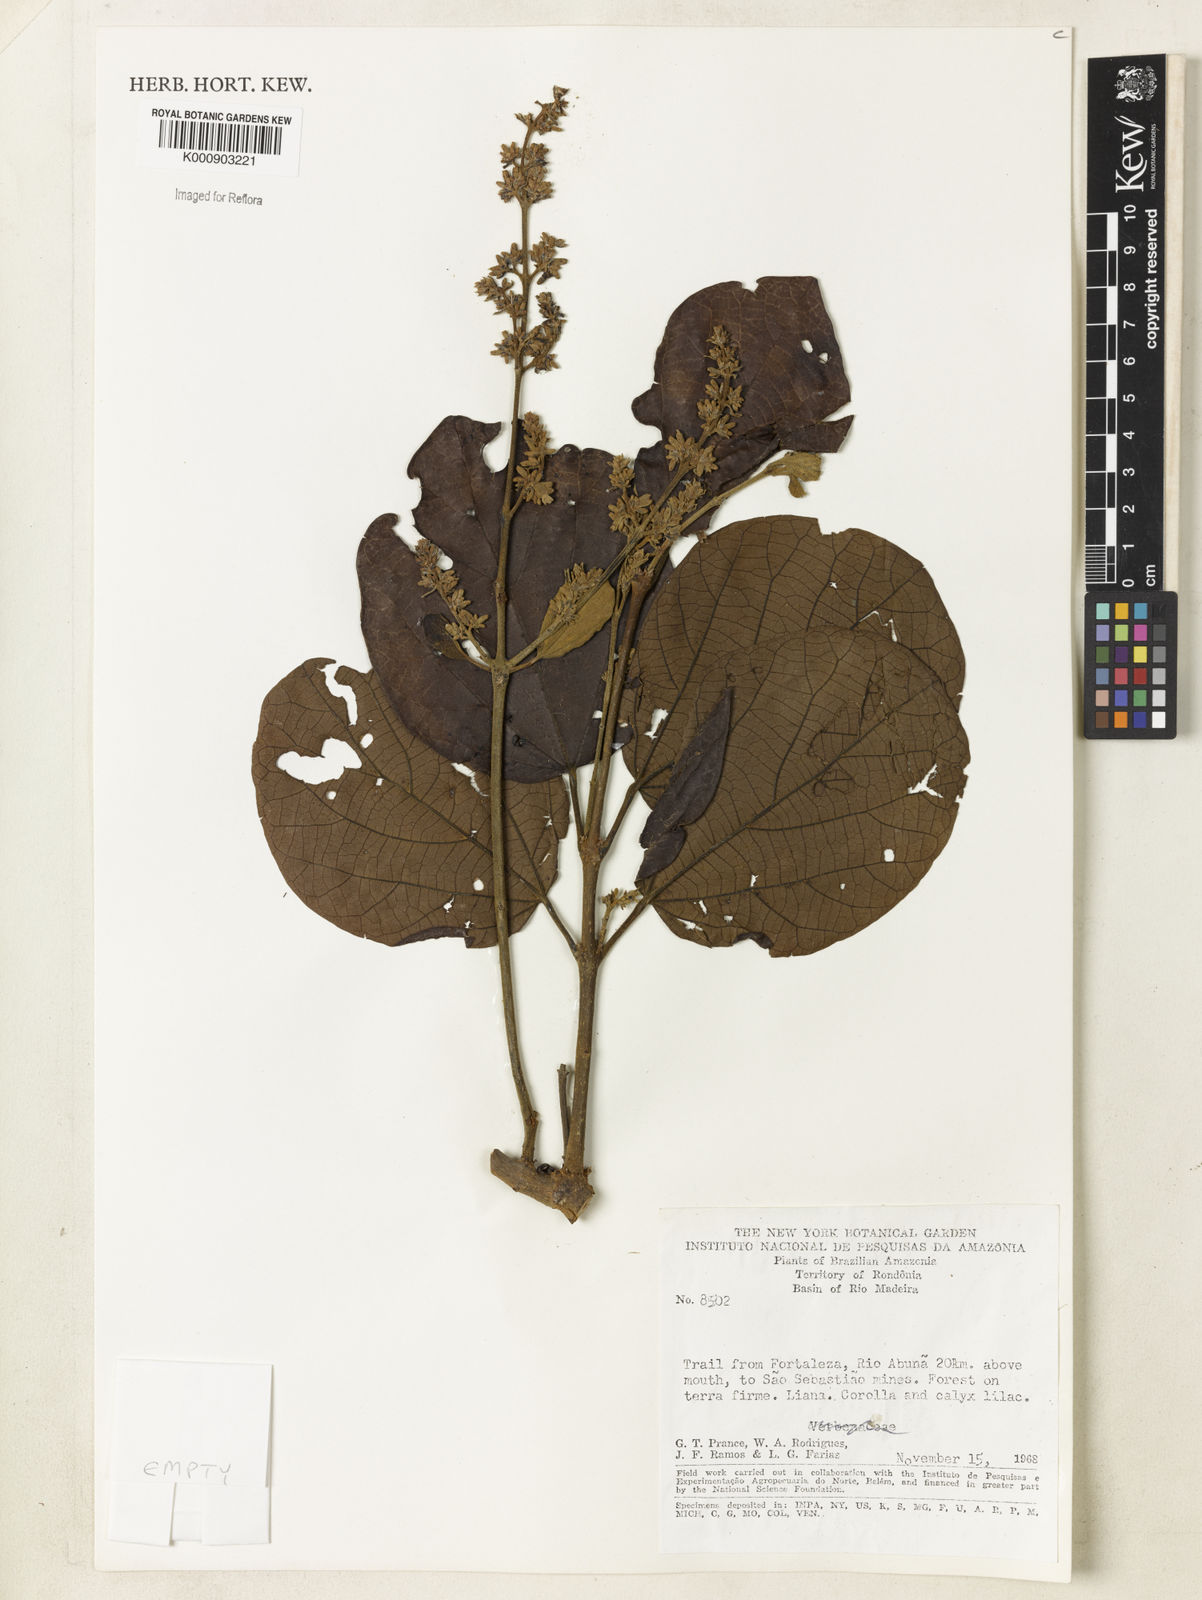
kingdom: Plantae
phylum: Tracheophyta
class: Magnoliopsida
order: Lamiales
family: Bignoniaceae
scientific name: Bignoniaceae
